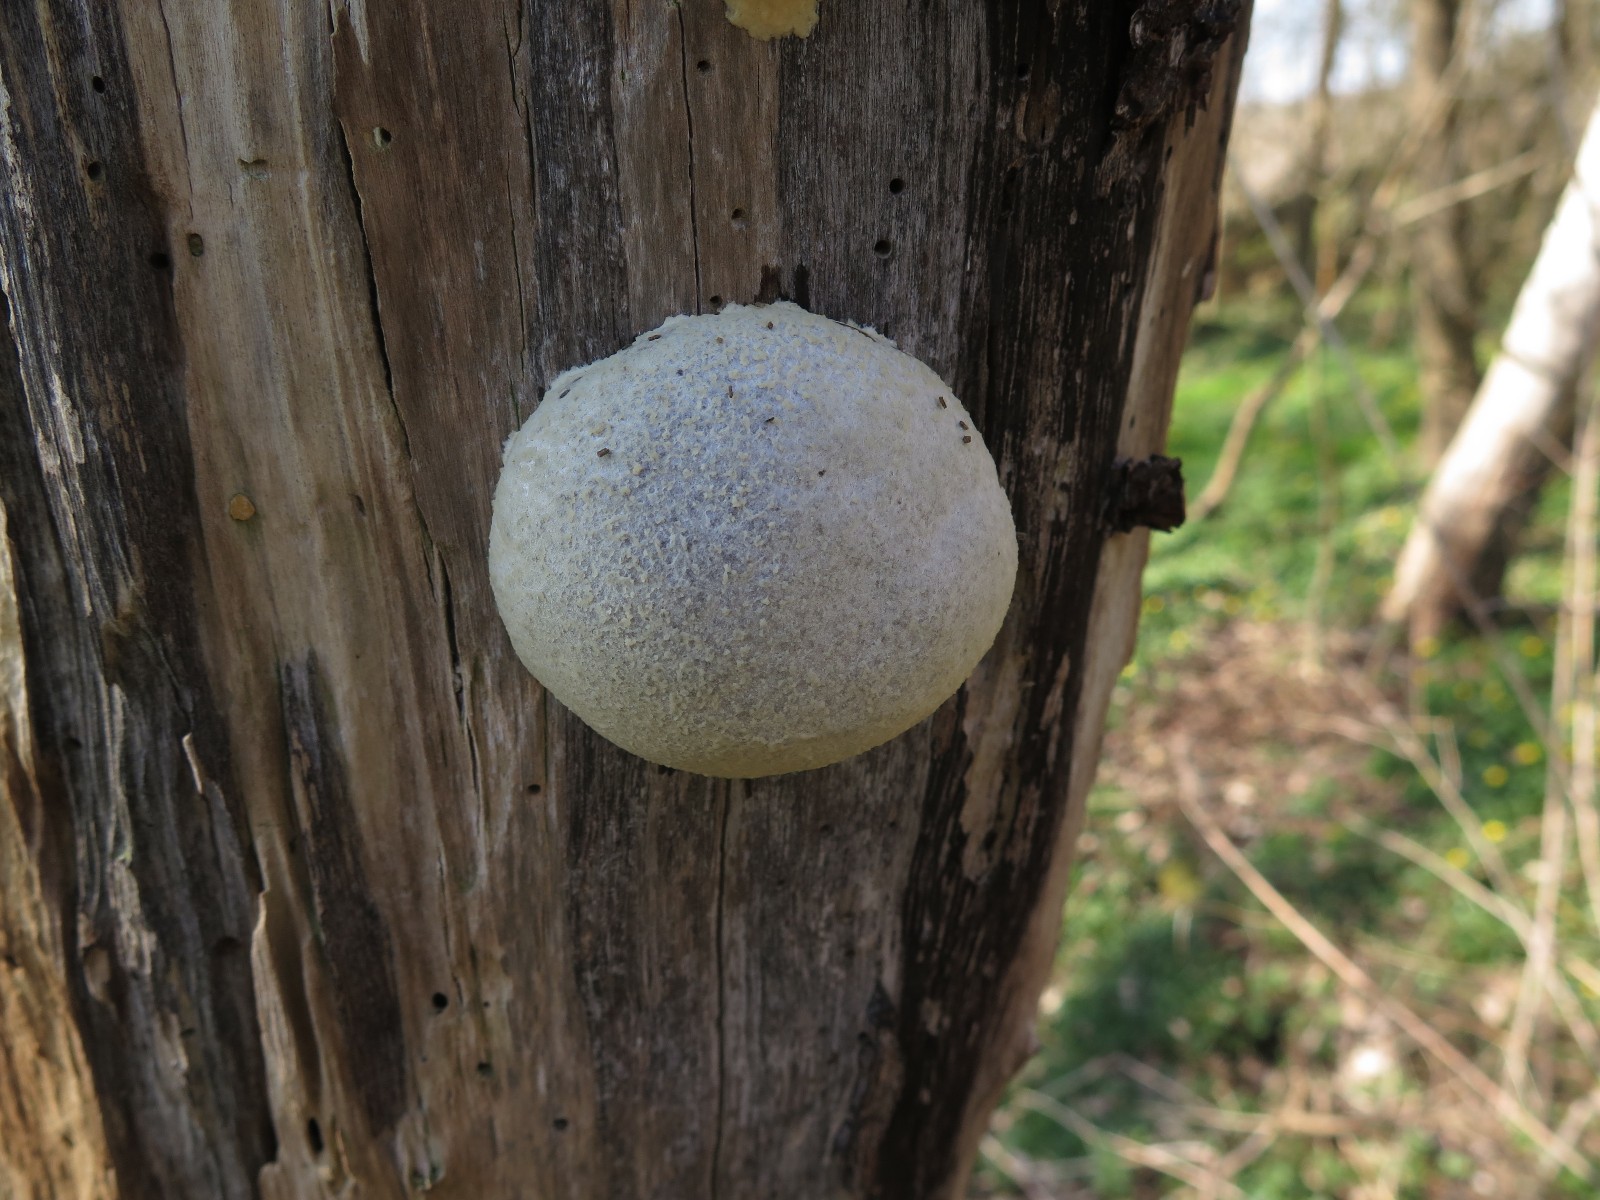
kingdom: Protozoa
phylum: Mycetozoa
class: Myxomycetes
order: Cribrariales
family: Tubiferaceae
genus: Reticularia
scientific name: Reticularia lycoperdon
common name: skinnende støvpude
